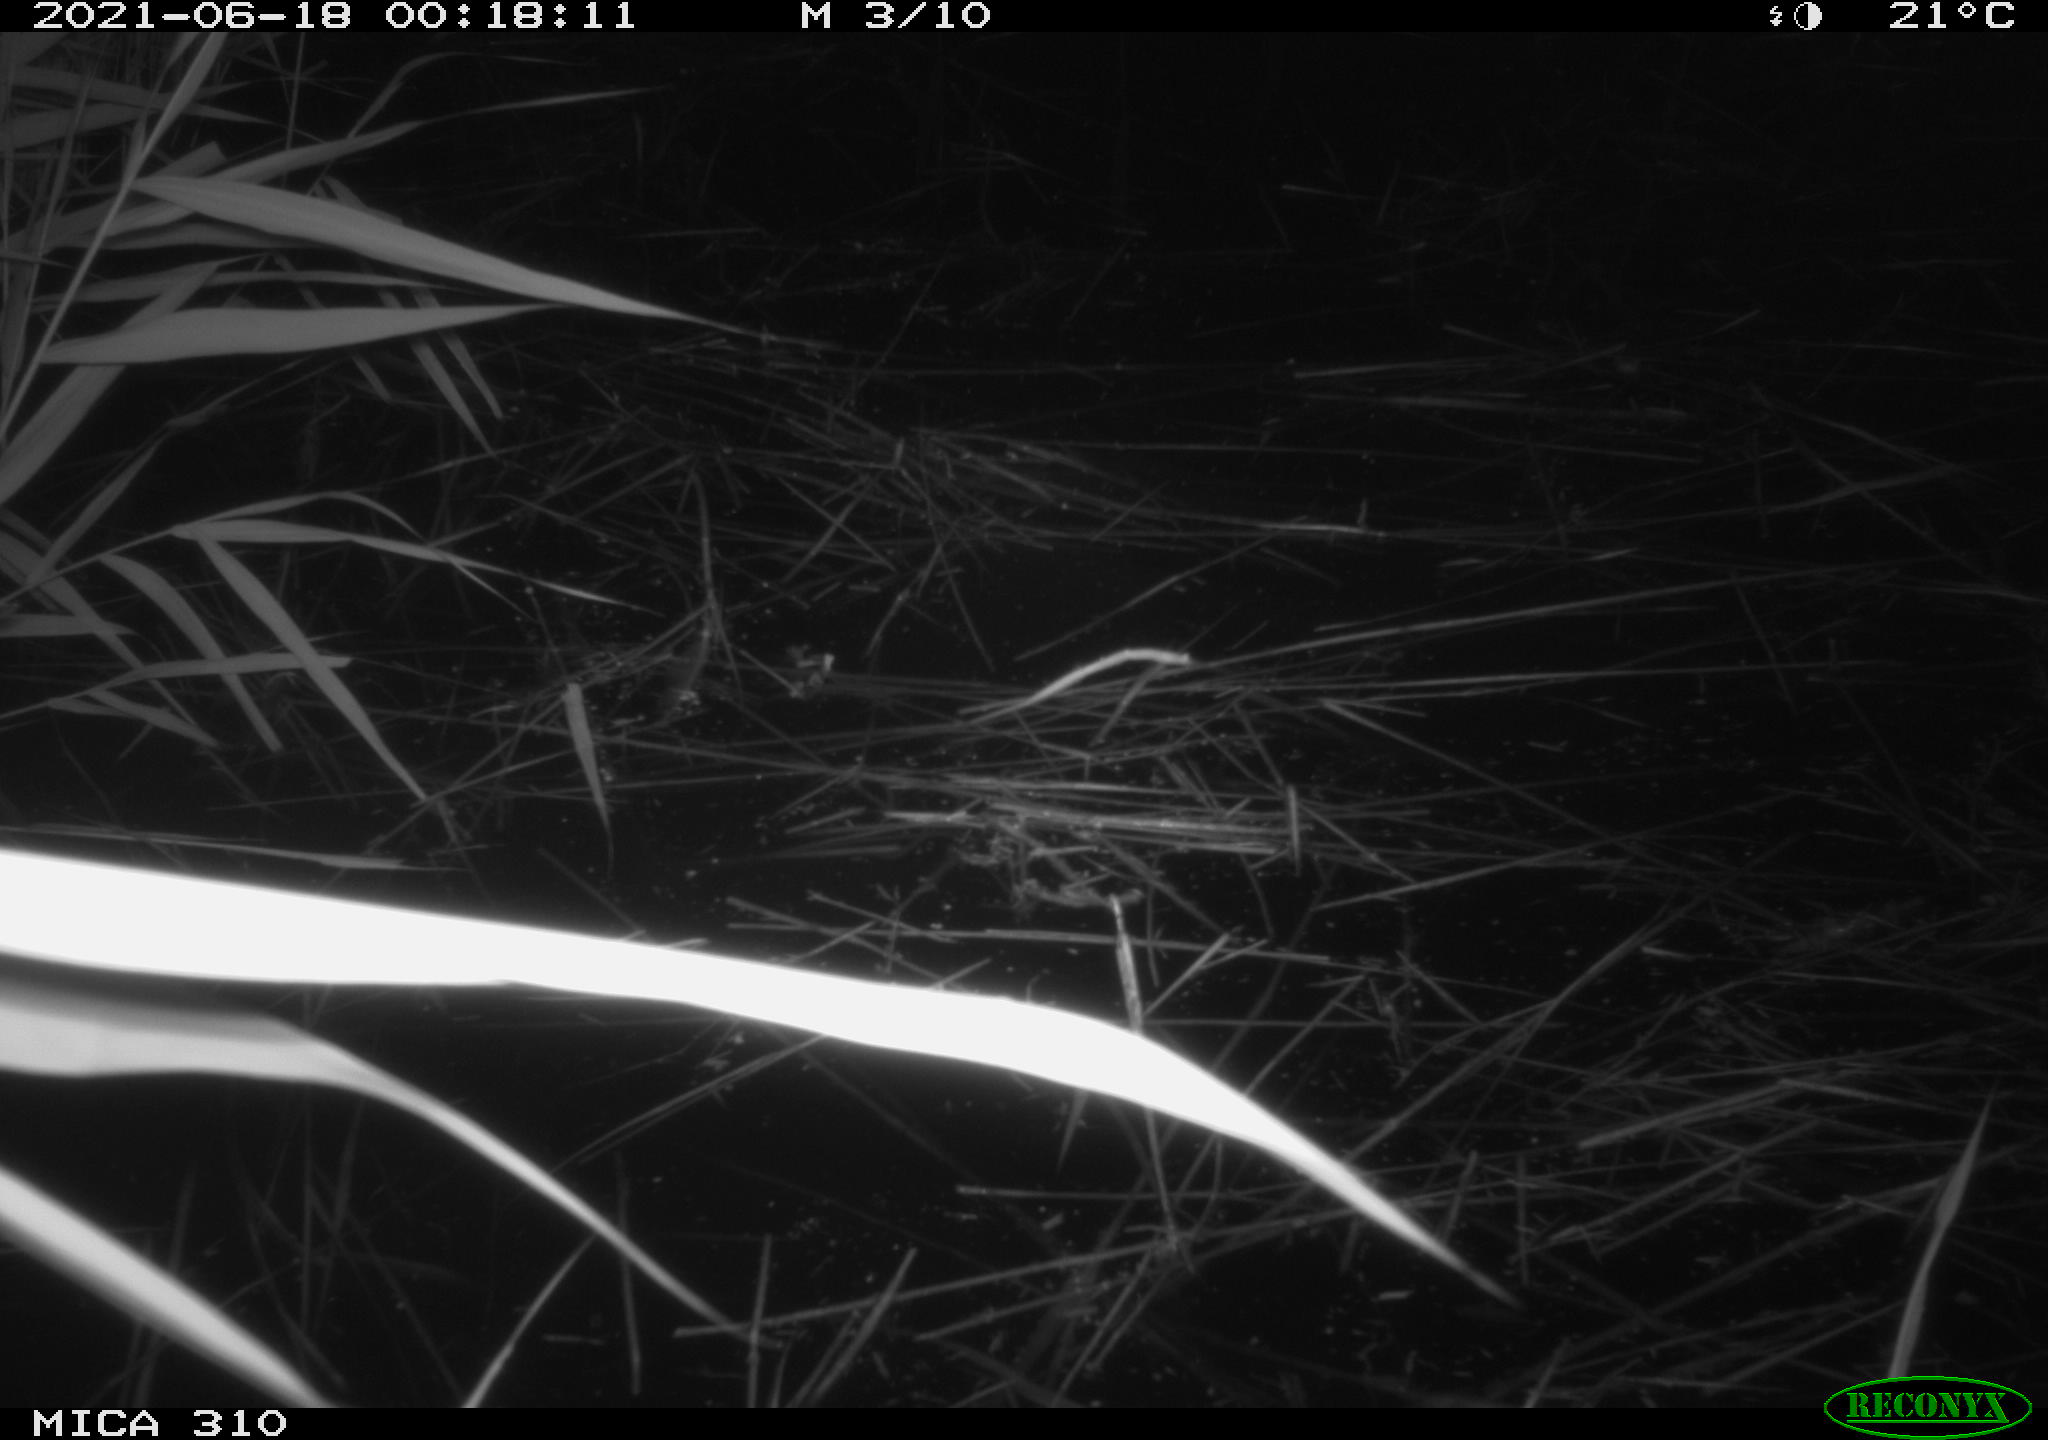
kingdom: Animalia
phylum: Chordata
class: Aves
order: Anseriformes
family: Anatidae
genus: Anas
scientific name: Anas
